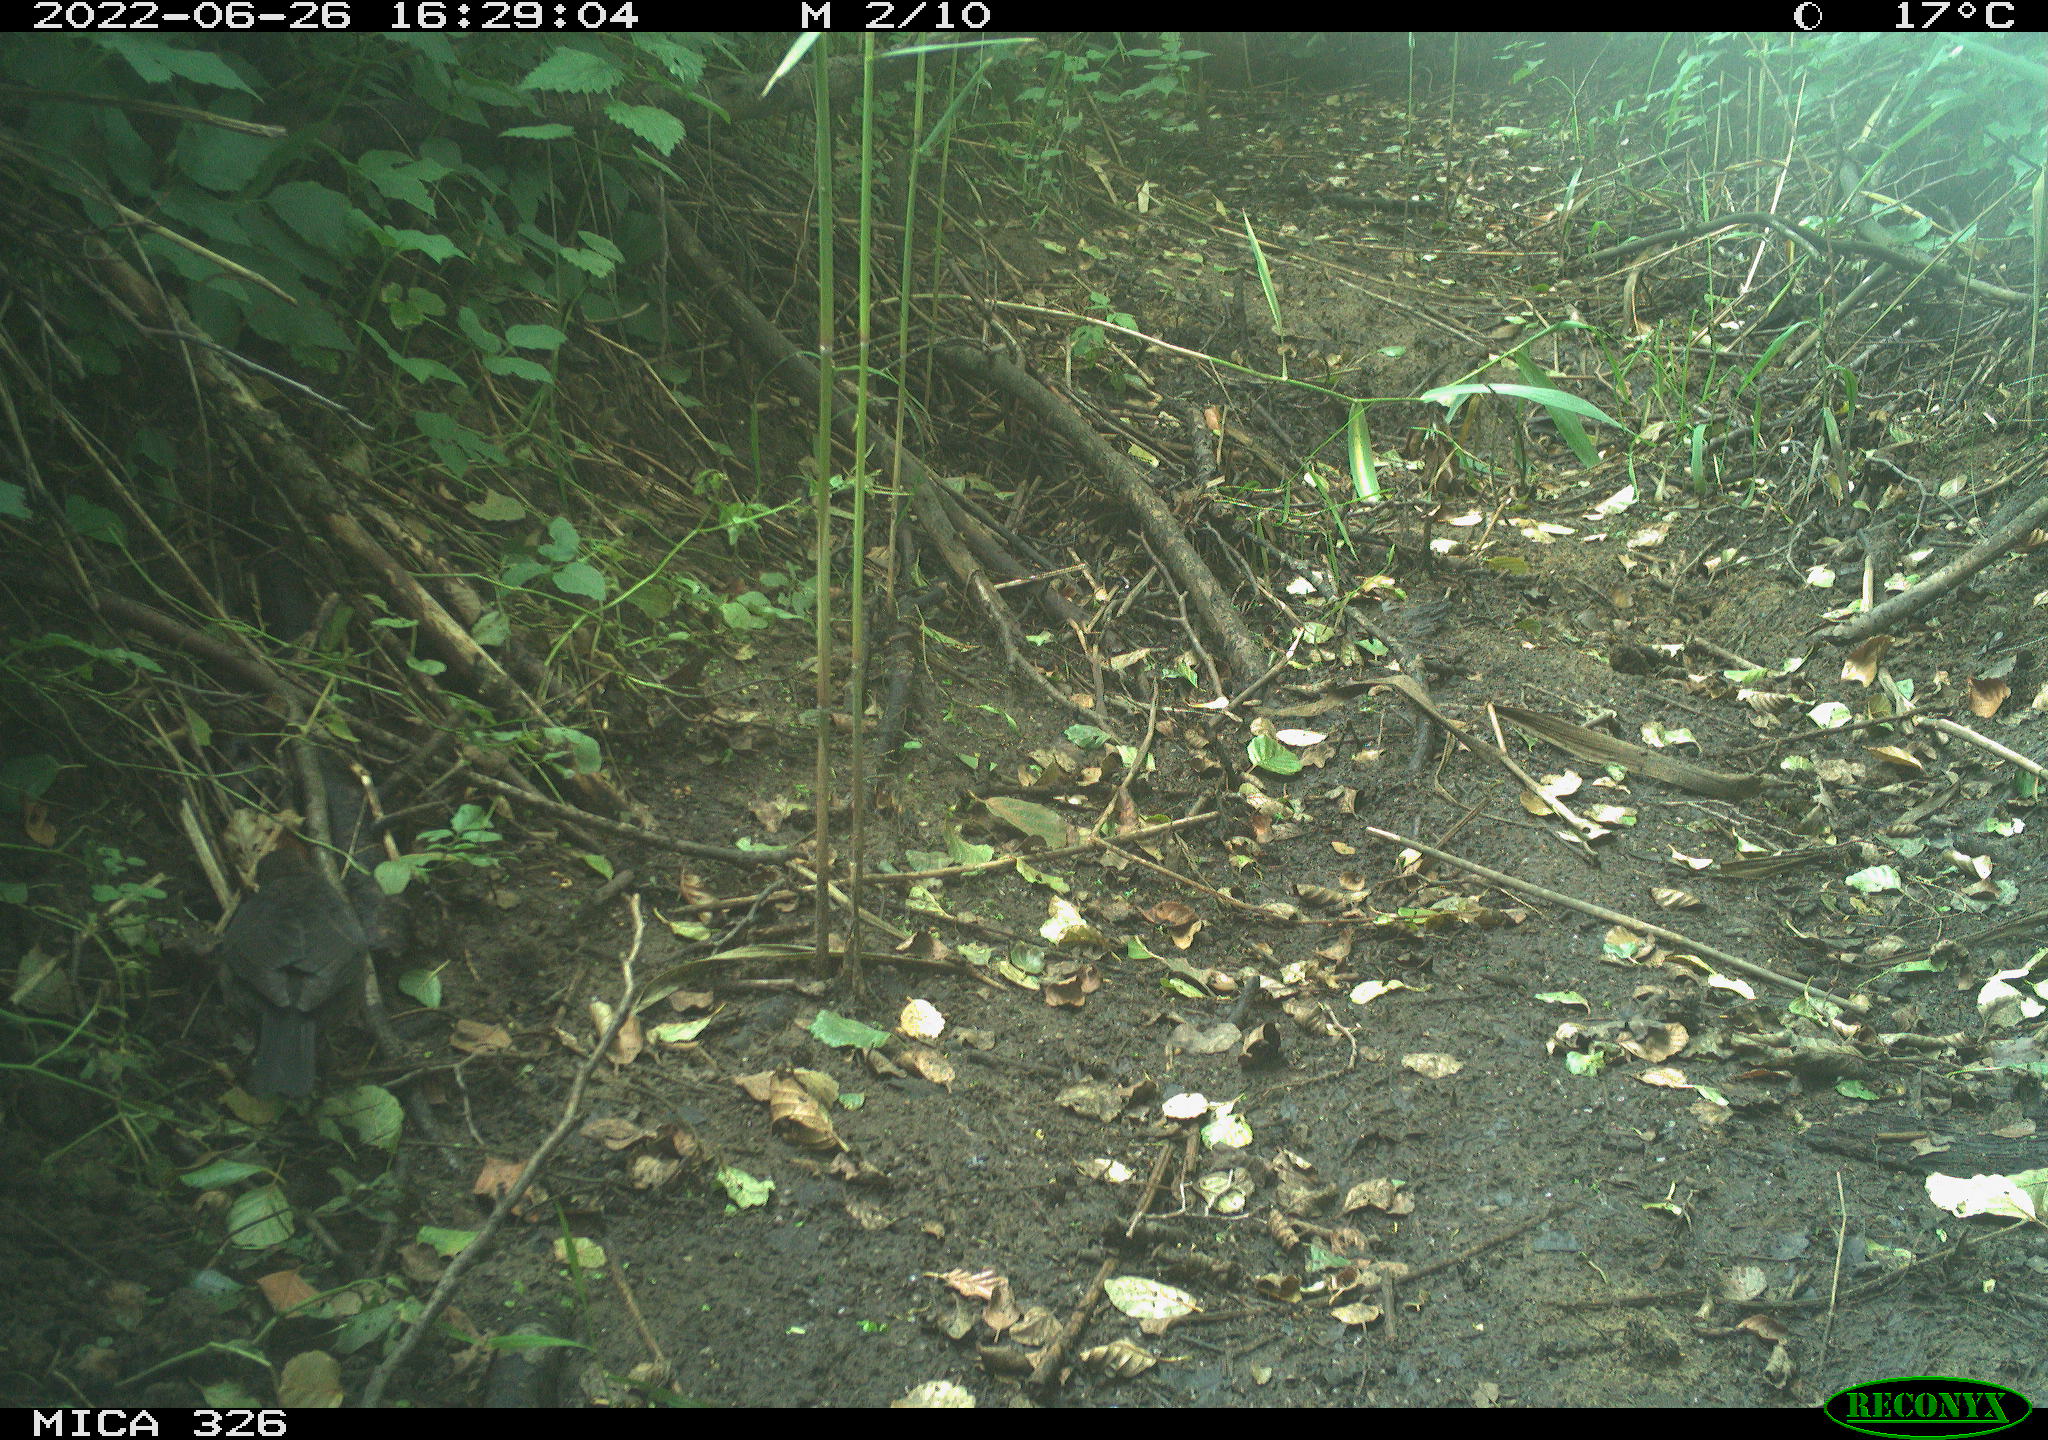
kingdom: Animalia
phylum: Chordata
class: Aves
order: Passeriformes
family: Turdidae
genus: Turdus
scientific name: Turdus merula
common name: Common blackbird
